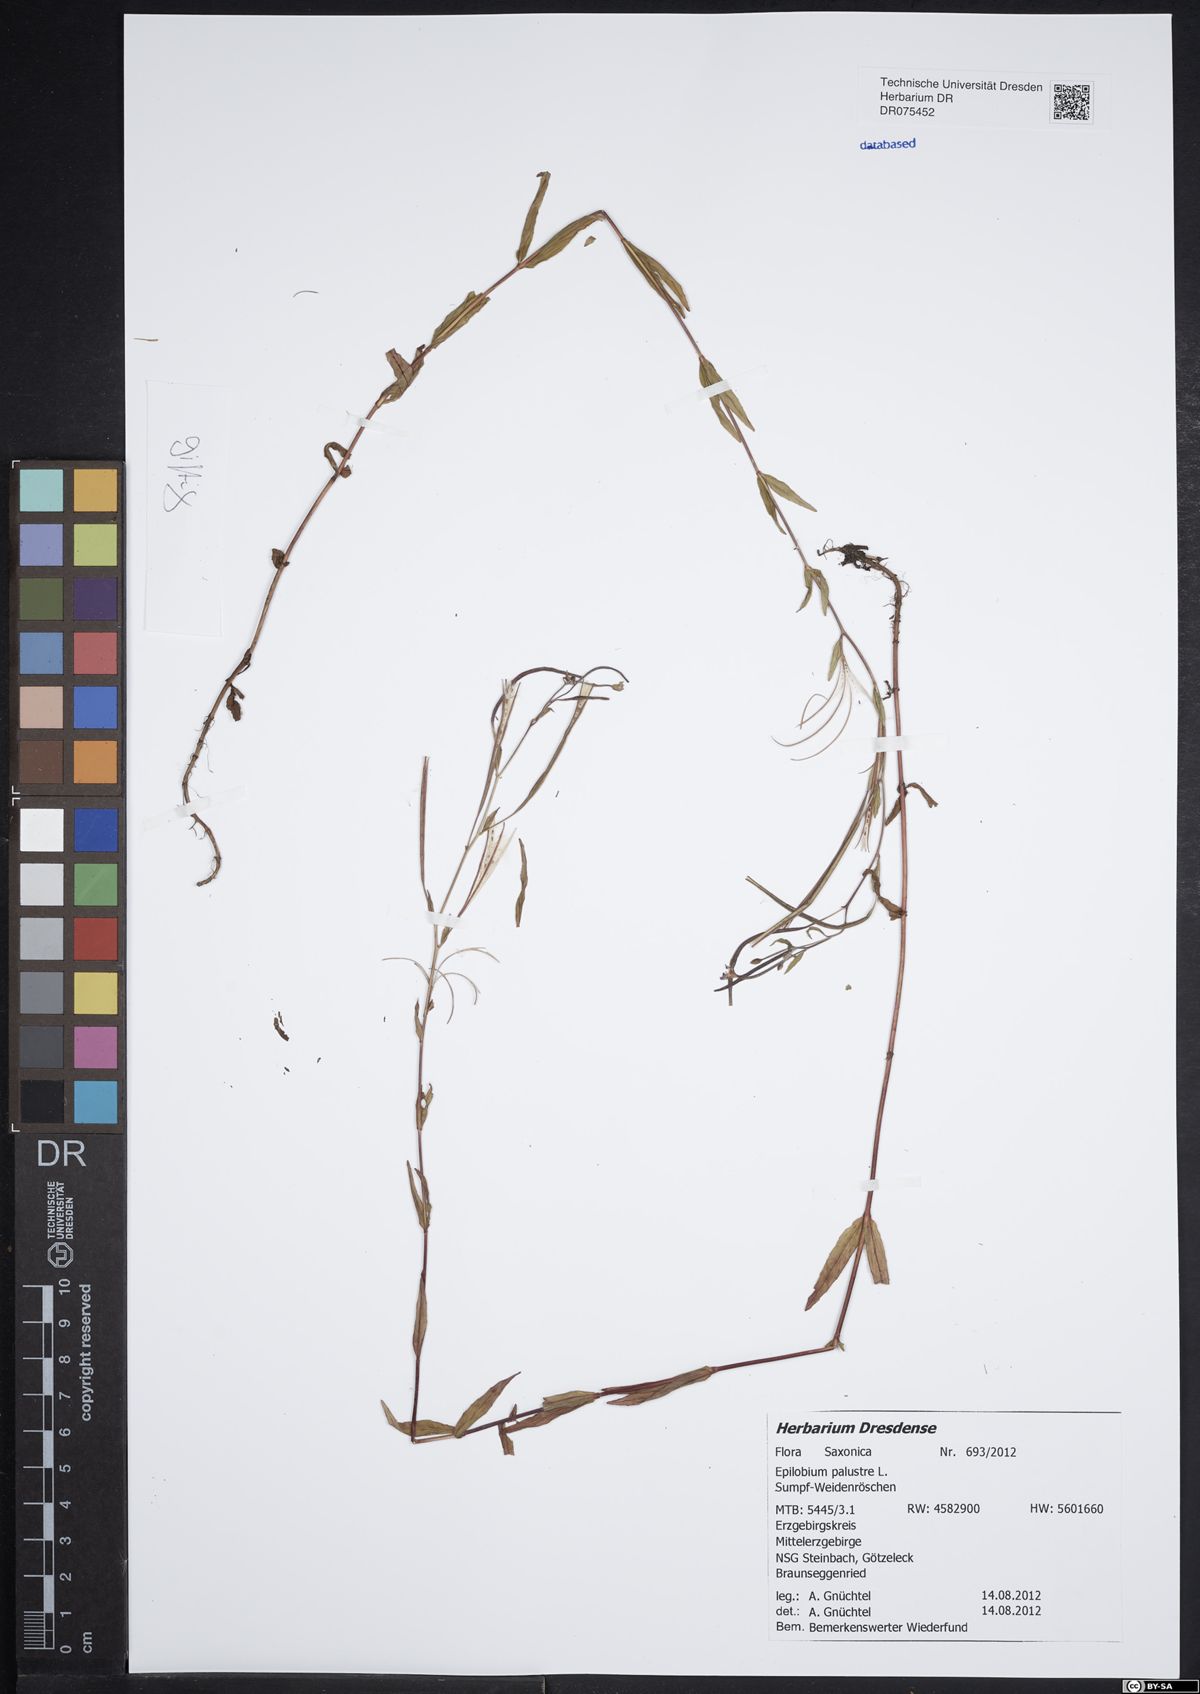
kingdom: Plantae
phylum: Tracheophyta
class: Magnoliopsida
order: Myrtales
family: Onagraceae
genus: Epilobium
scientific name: Epilobium palustre
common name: Marsh willowherb
